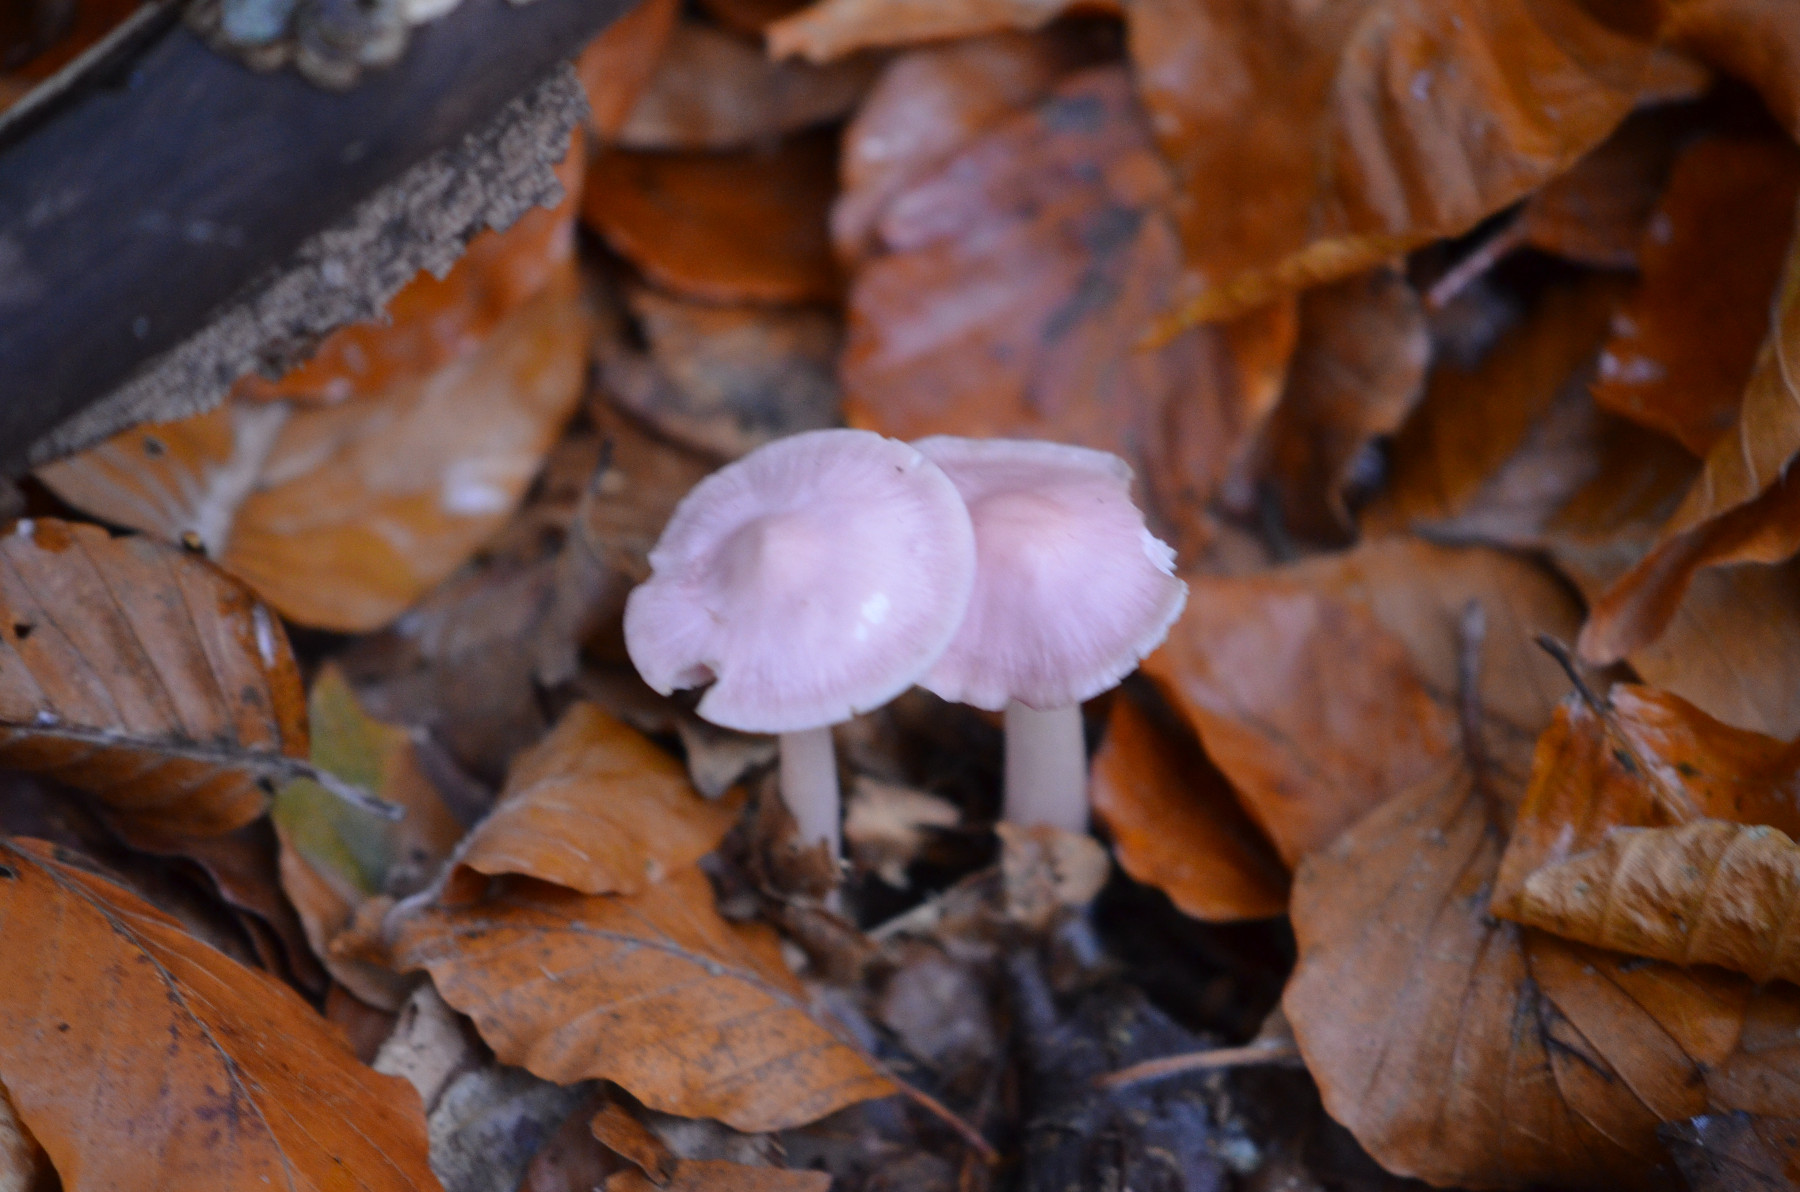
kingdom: Fungi
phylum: Basidiomycota
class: Agaricomycetes
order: Agaricales
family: Mycenaceae
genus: Mycena
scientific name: Mycena rosea
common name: rosa huesvamp
